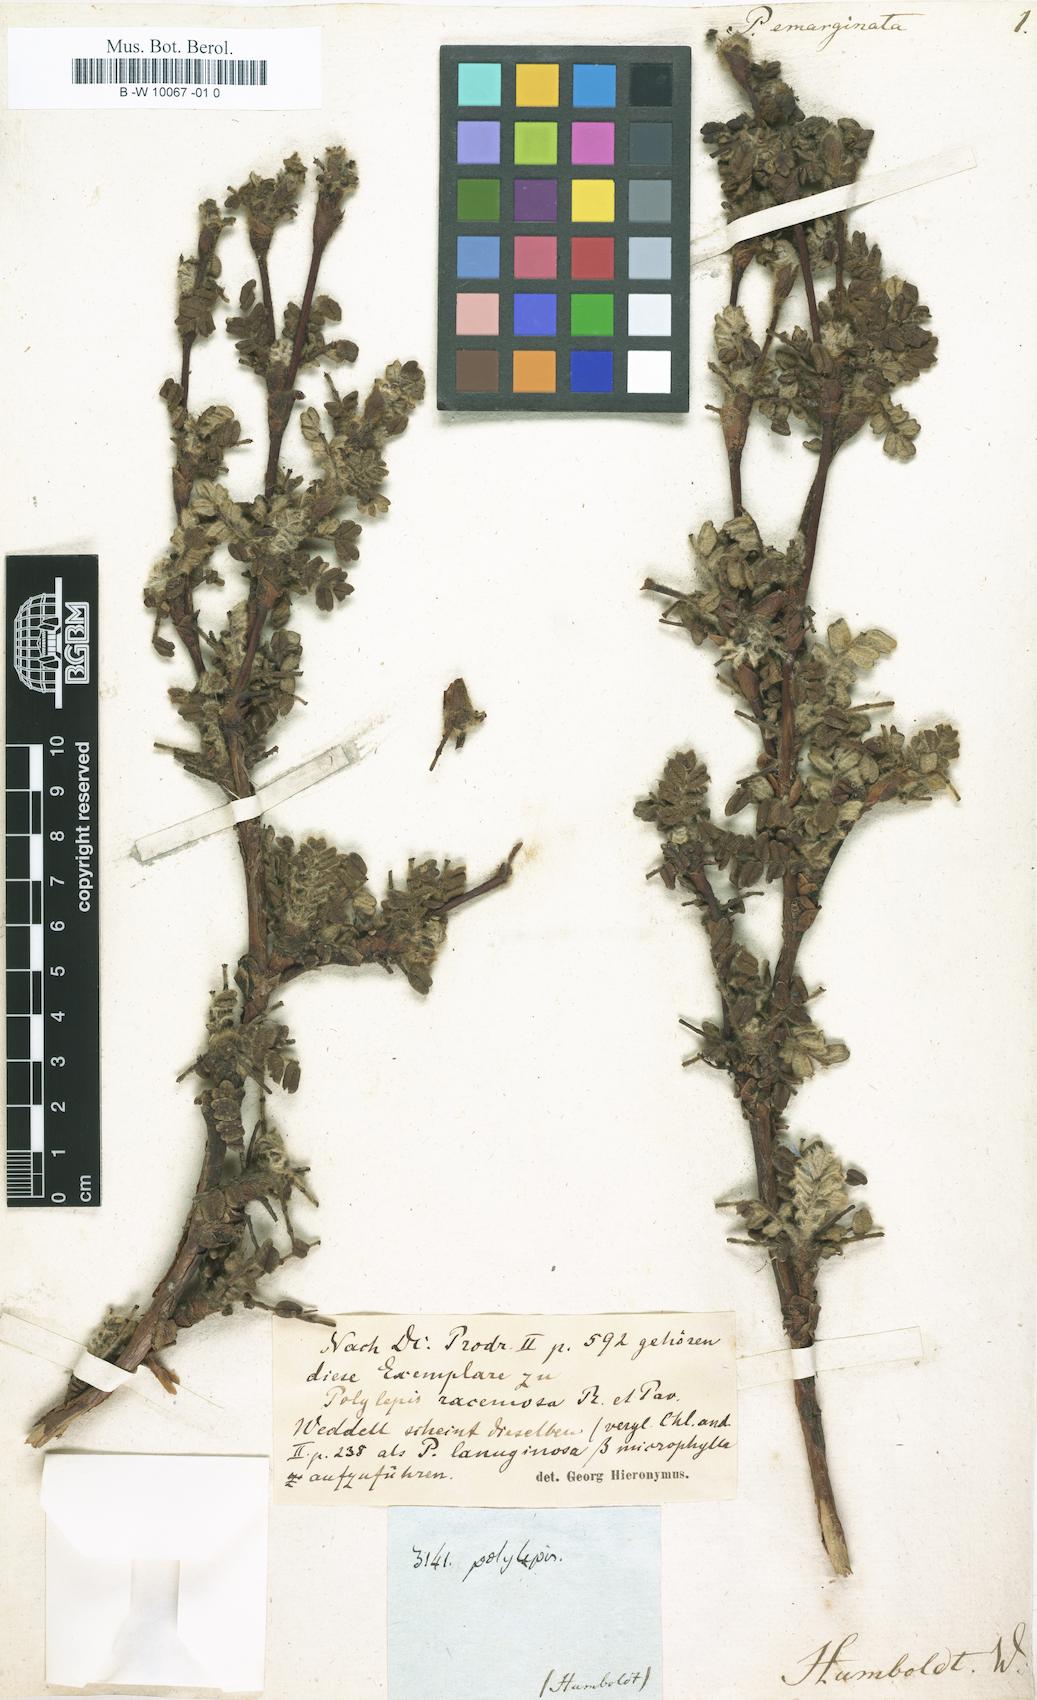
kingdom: Plantae
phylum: Tracheophyta
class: Magnoliopsida
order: Rosales
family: Rosaceae
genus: Polylepis
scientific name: Polylepis
